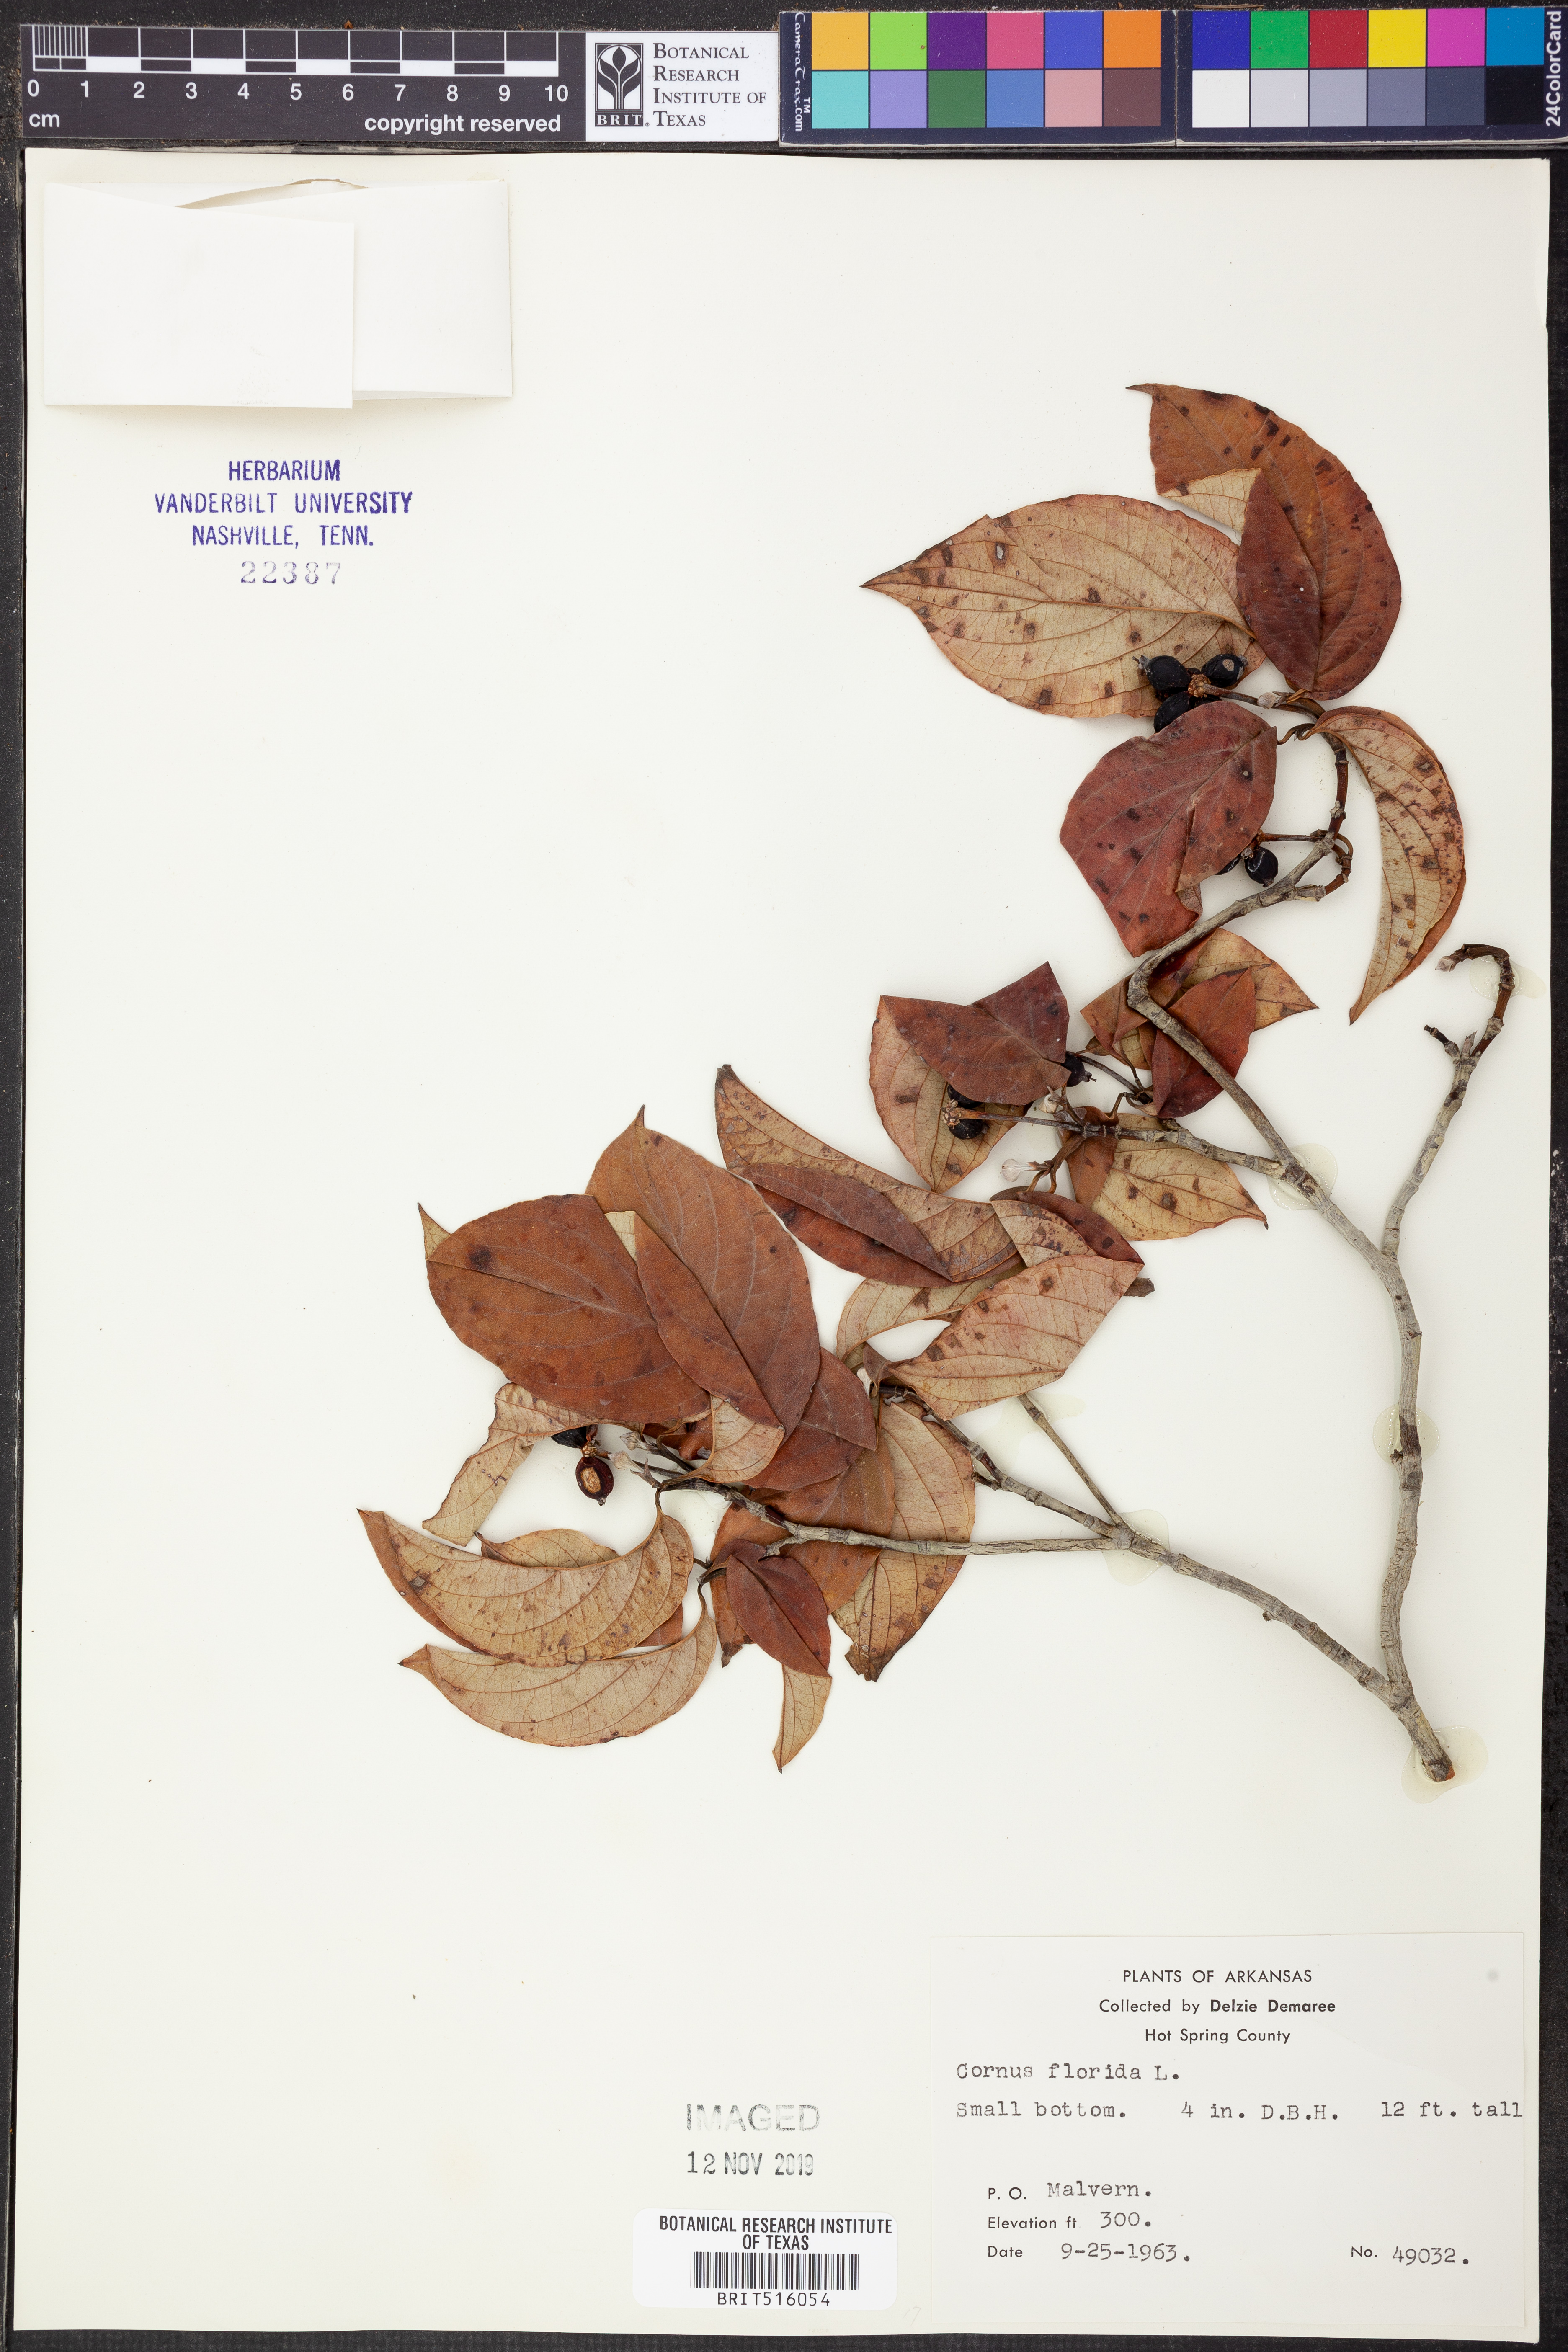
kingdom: Plantae
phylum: Tracheophyta
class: Magnoliopsida
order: Cornales
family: Cornaceae
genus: Cornus
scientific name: Cornus florida
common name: Flowering dogwood
